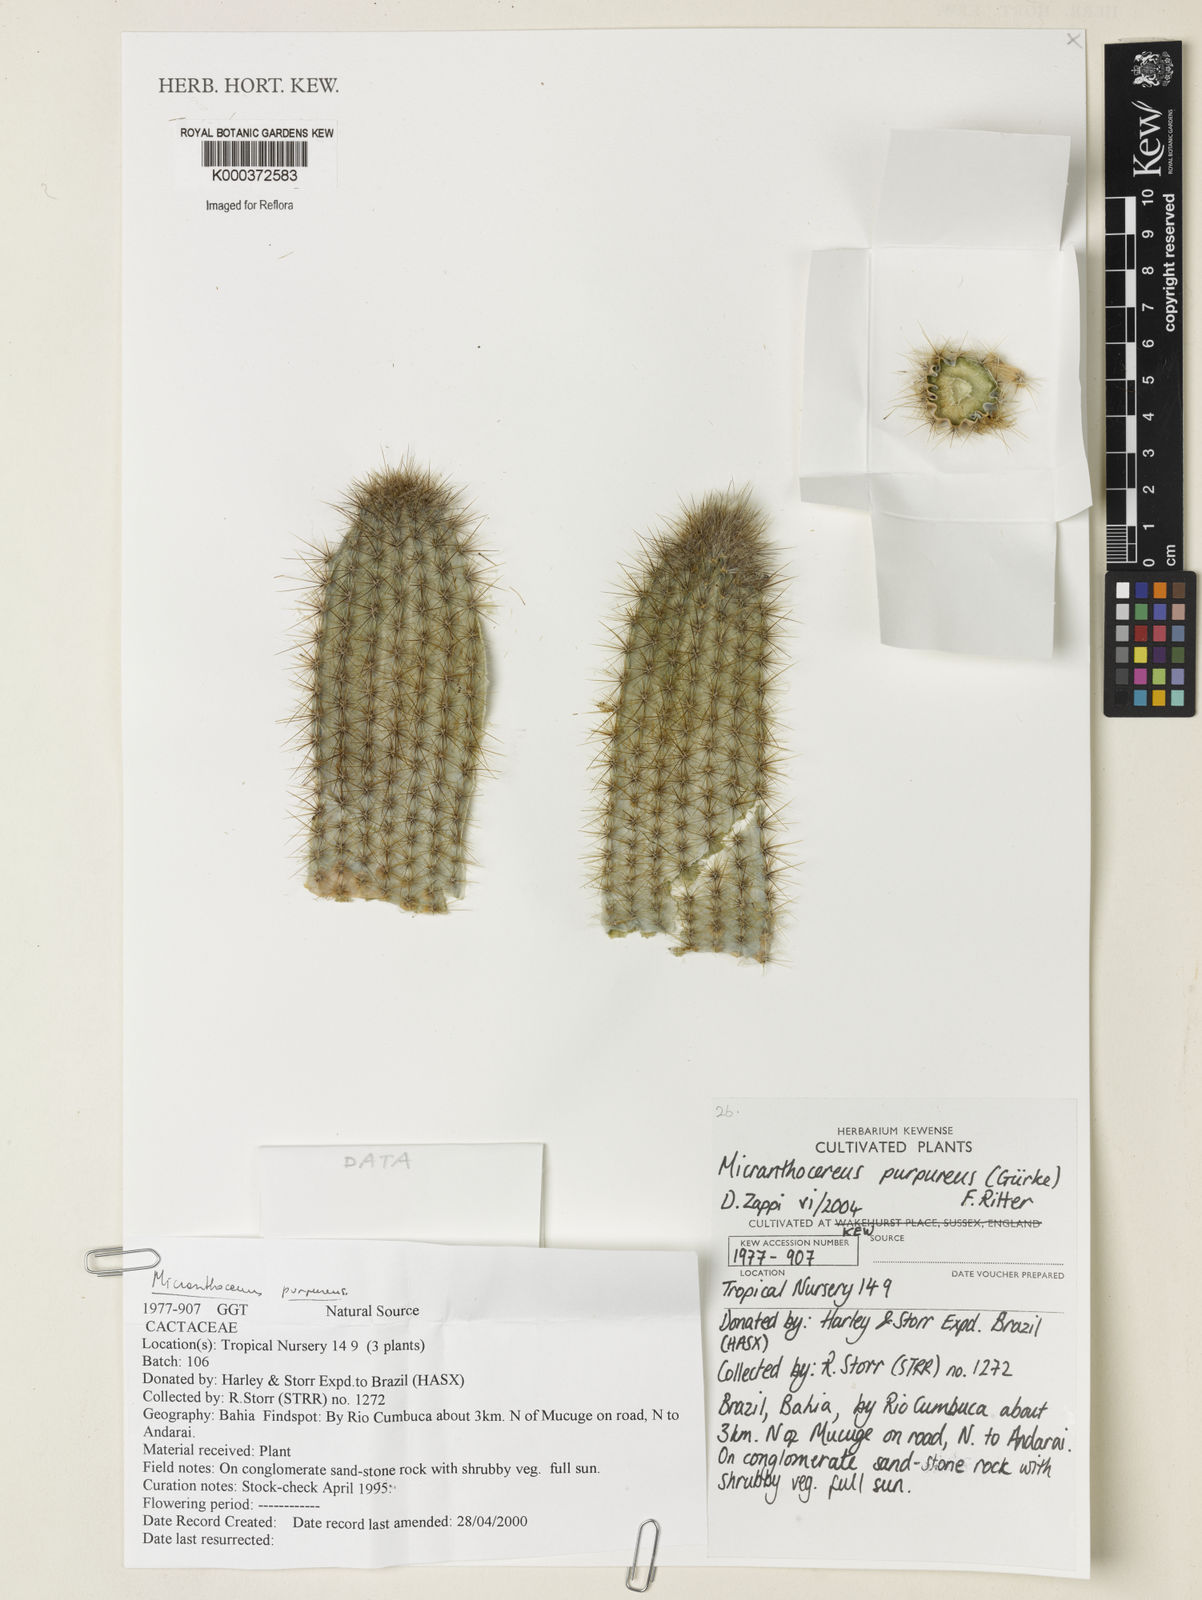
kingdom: Plantae
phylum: Tracheophyta
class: Magnoliopsida
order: Caryophyllales
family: Cactaceae
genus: Micranthocereus
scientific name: Micranthocereus
